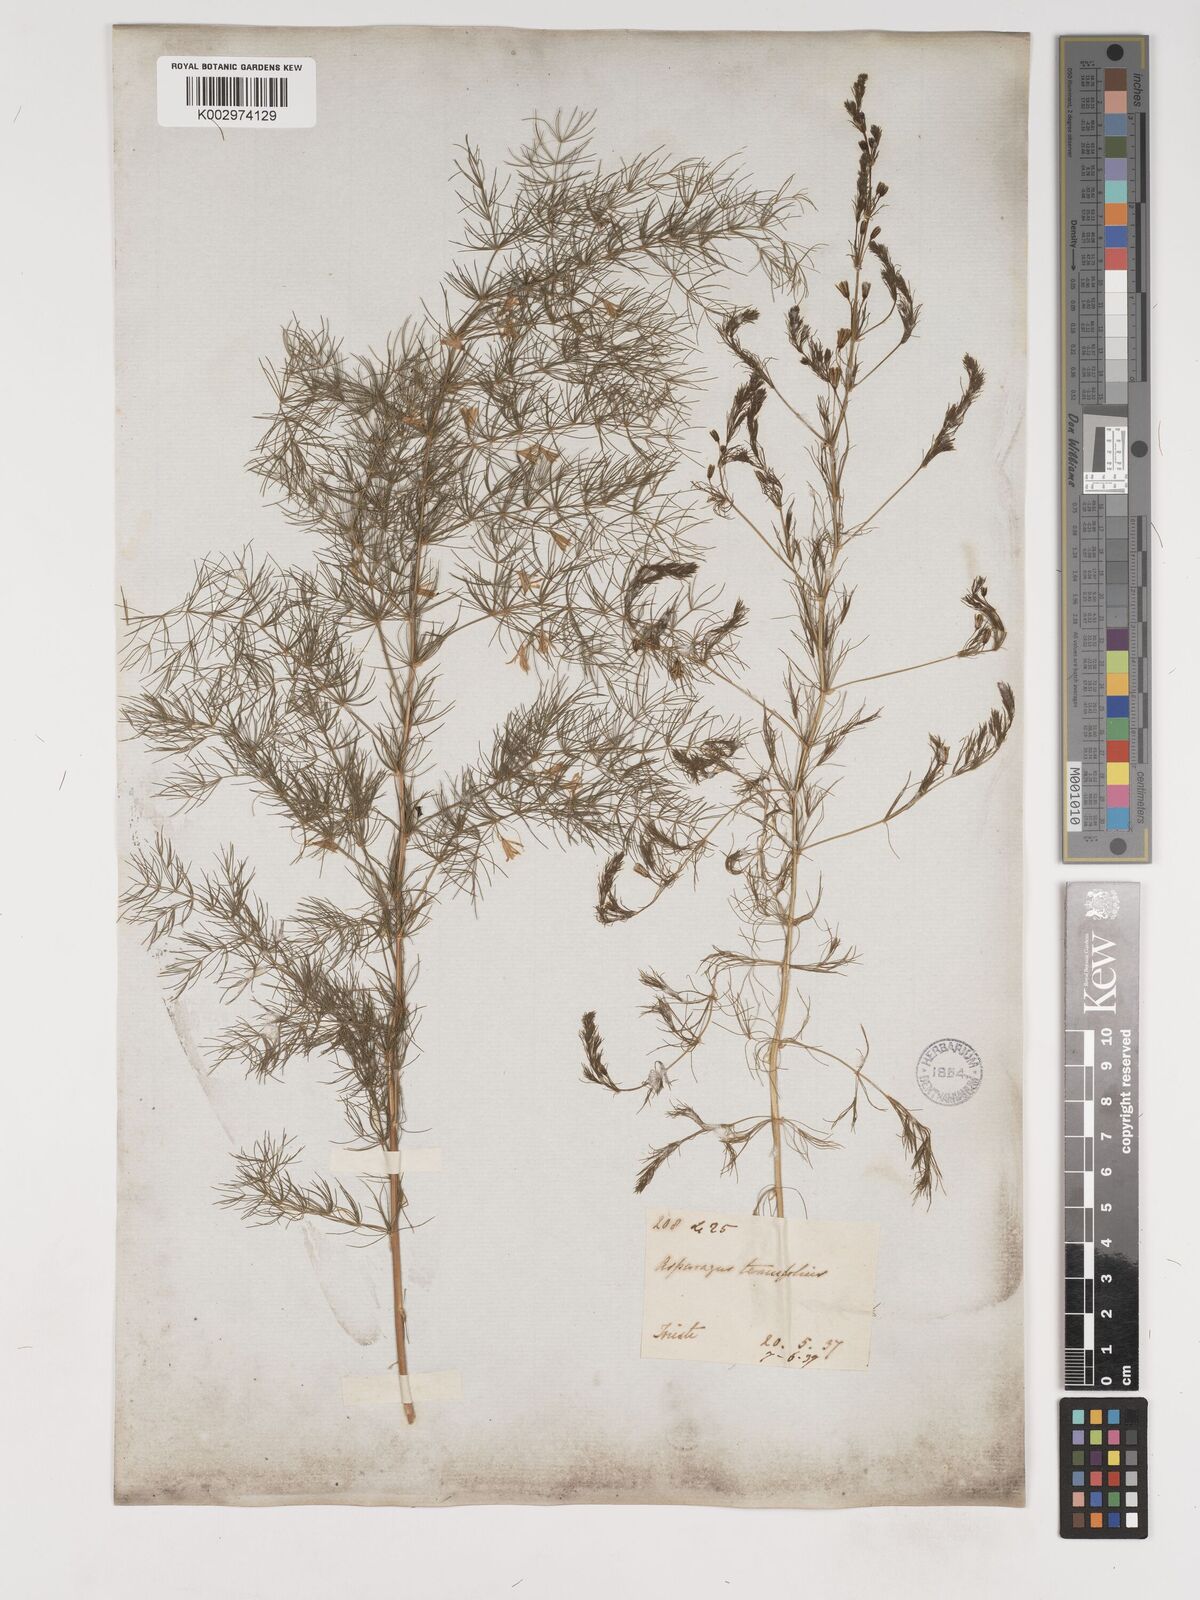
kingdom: Plantae
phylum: Tracheophyta
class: Liliopsida
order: Asparagales
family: Asparagaceae
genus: Asparagus
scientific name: Asparagus tenuifolius
